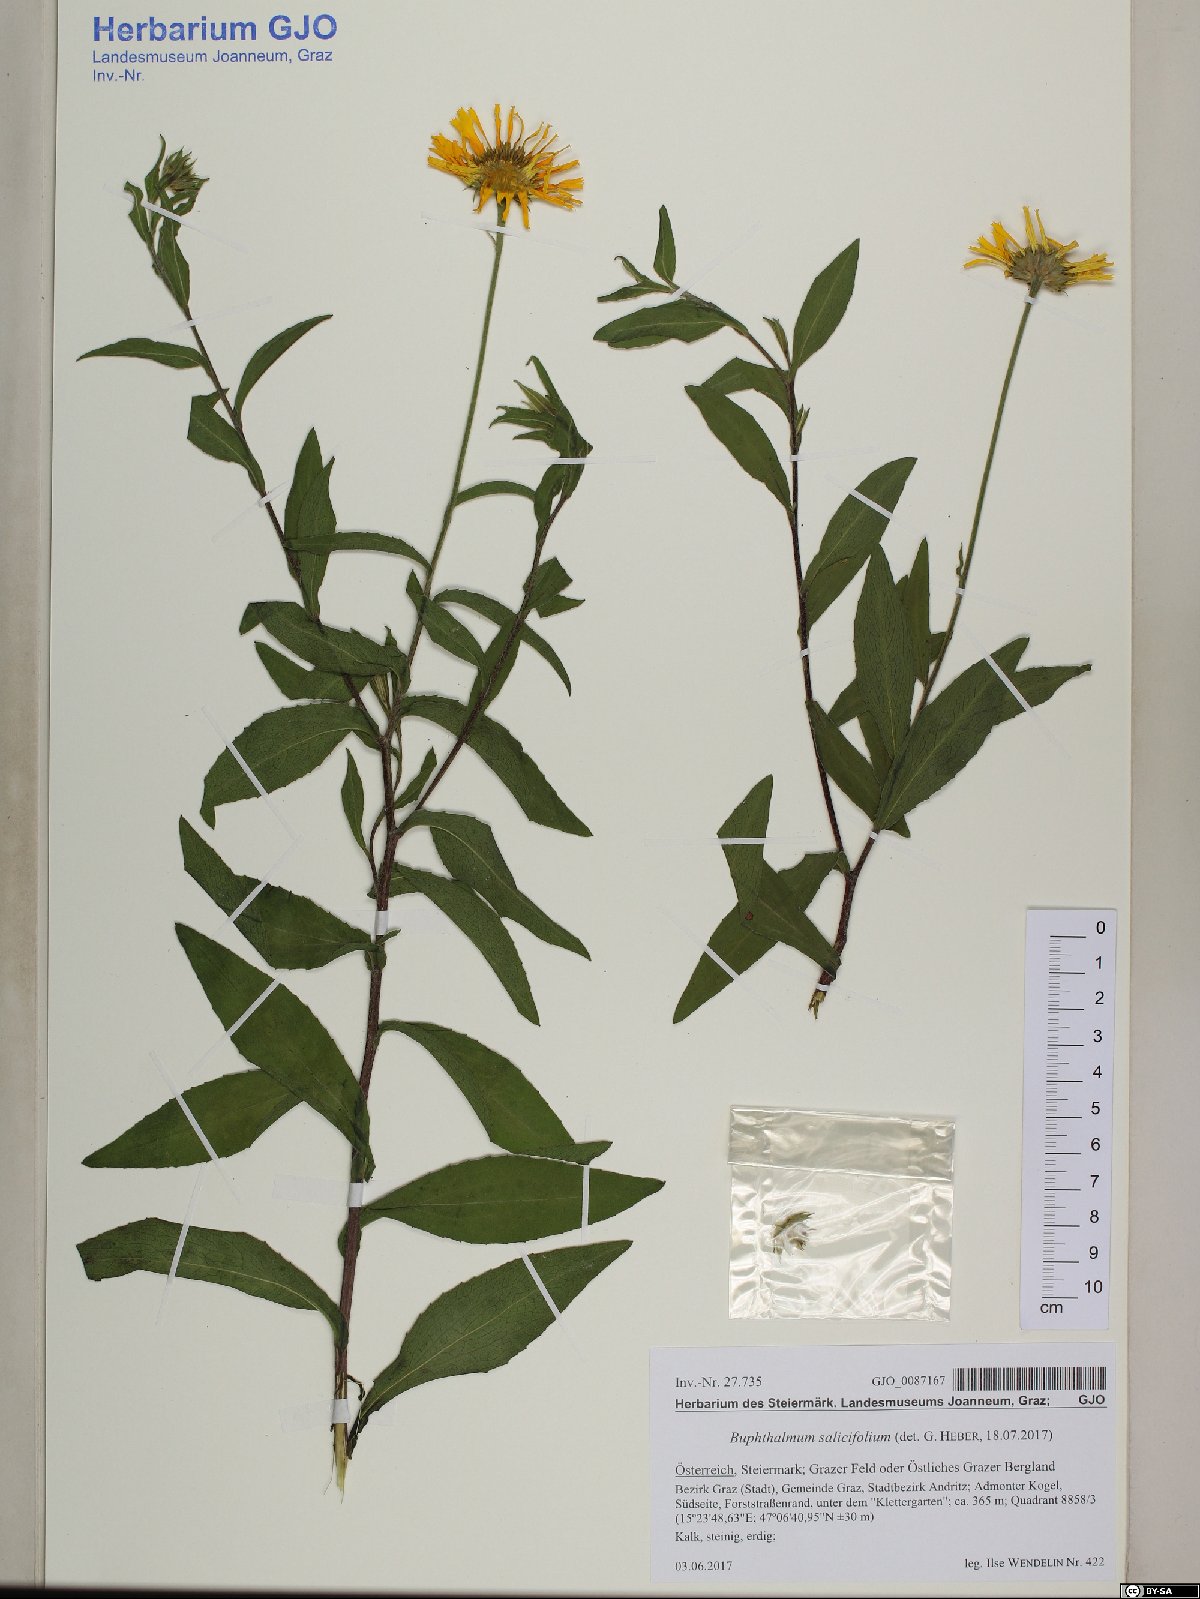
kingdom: Plantae
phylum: Tracheophyta
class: Magnoliopsida
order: Asterales
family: Asteraceae
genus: Buphthalmum
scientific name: Buphthalmum salicifolium
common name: Willow-leaved yellow-oxeye
